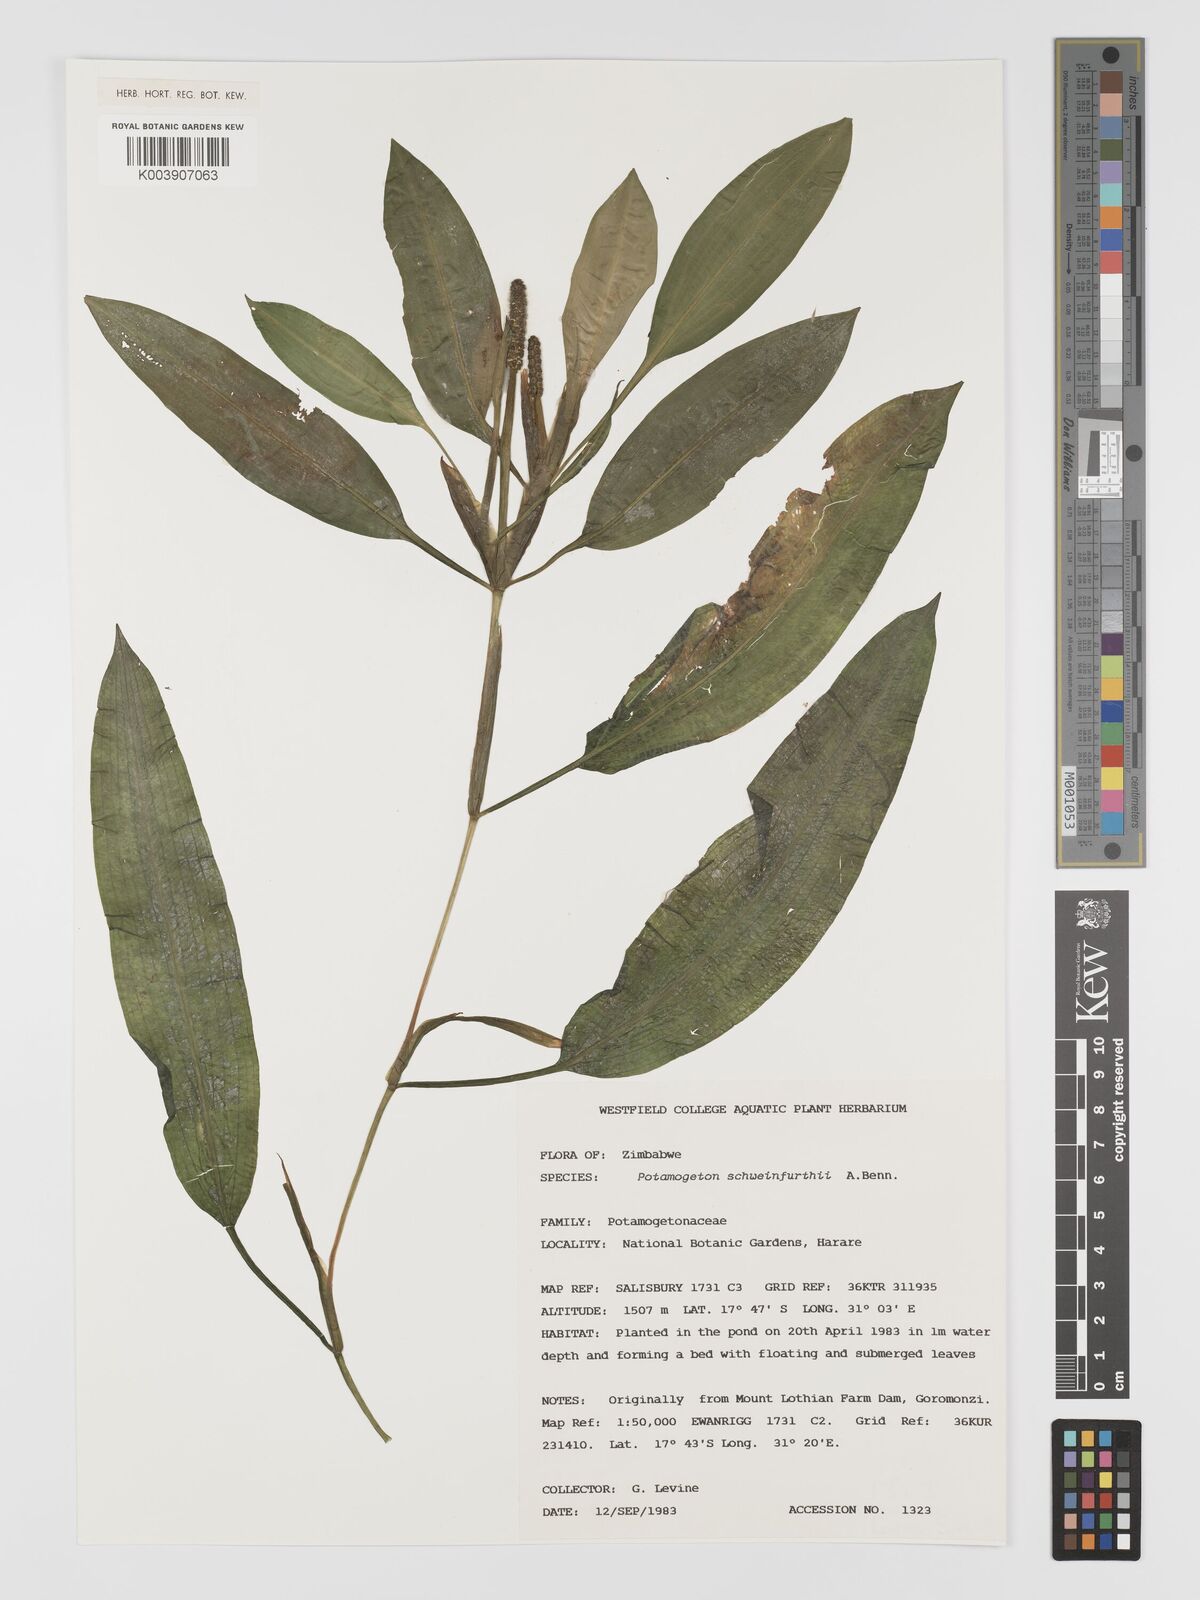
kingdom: Plantae
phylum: Tracheophyta
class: Liliopsida
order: Alismatales
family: Potamogetonaceae
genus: Potamogeton
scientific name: Potamogeton schweinfurthii
